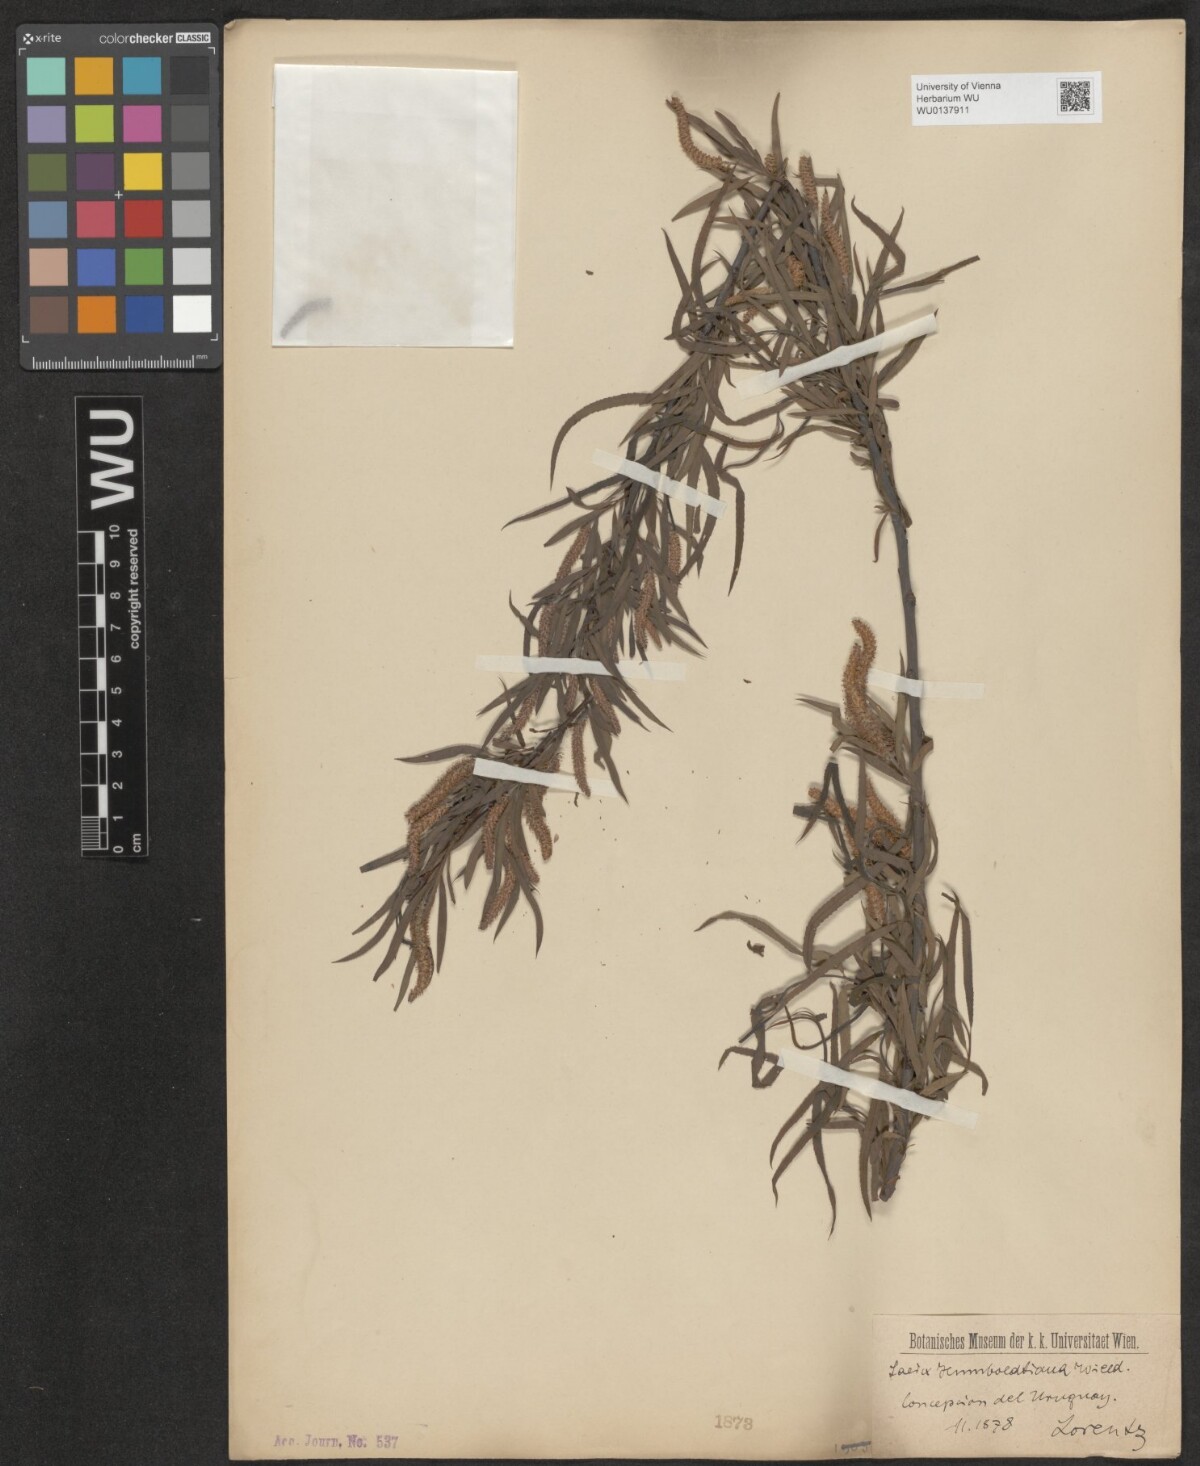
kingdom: Plantae
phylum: Tracheophyta
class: Magnoliopsida
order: Malpighiales
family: Salicaceae
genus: Salix
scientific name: Salix humboldtiana
